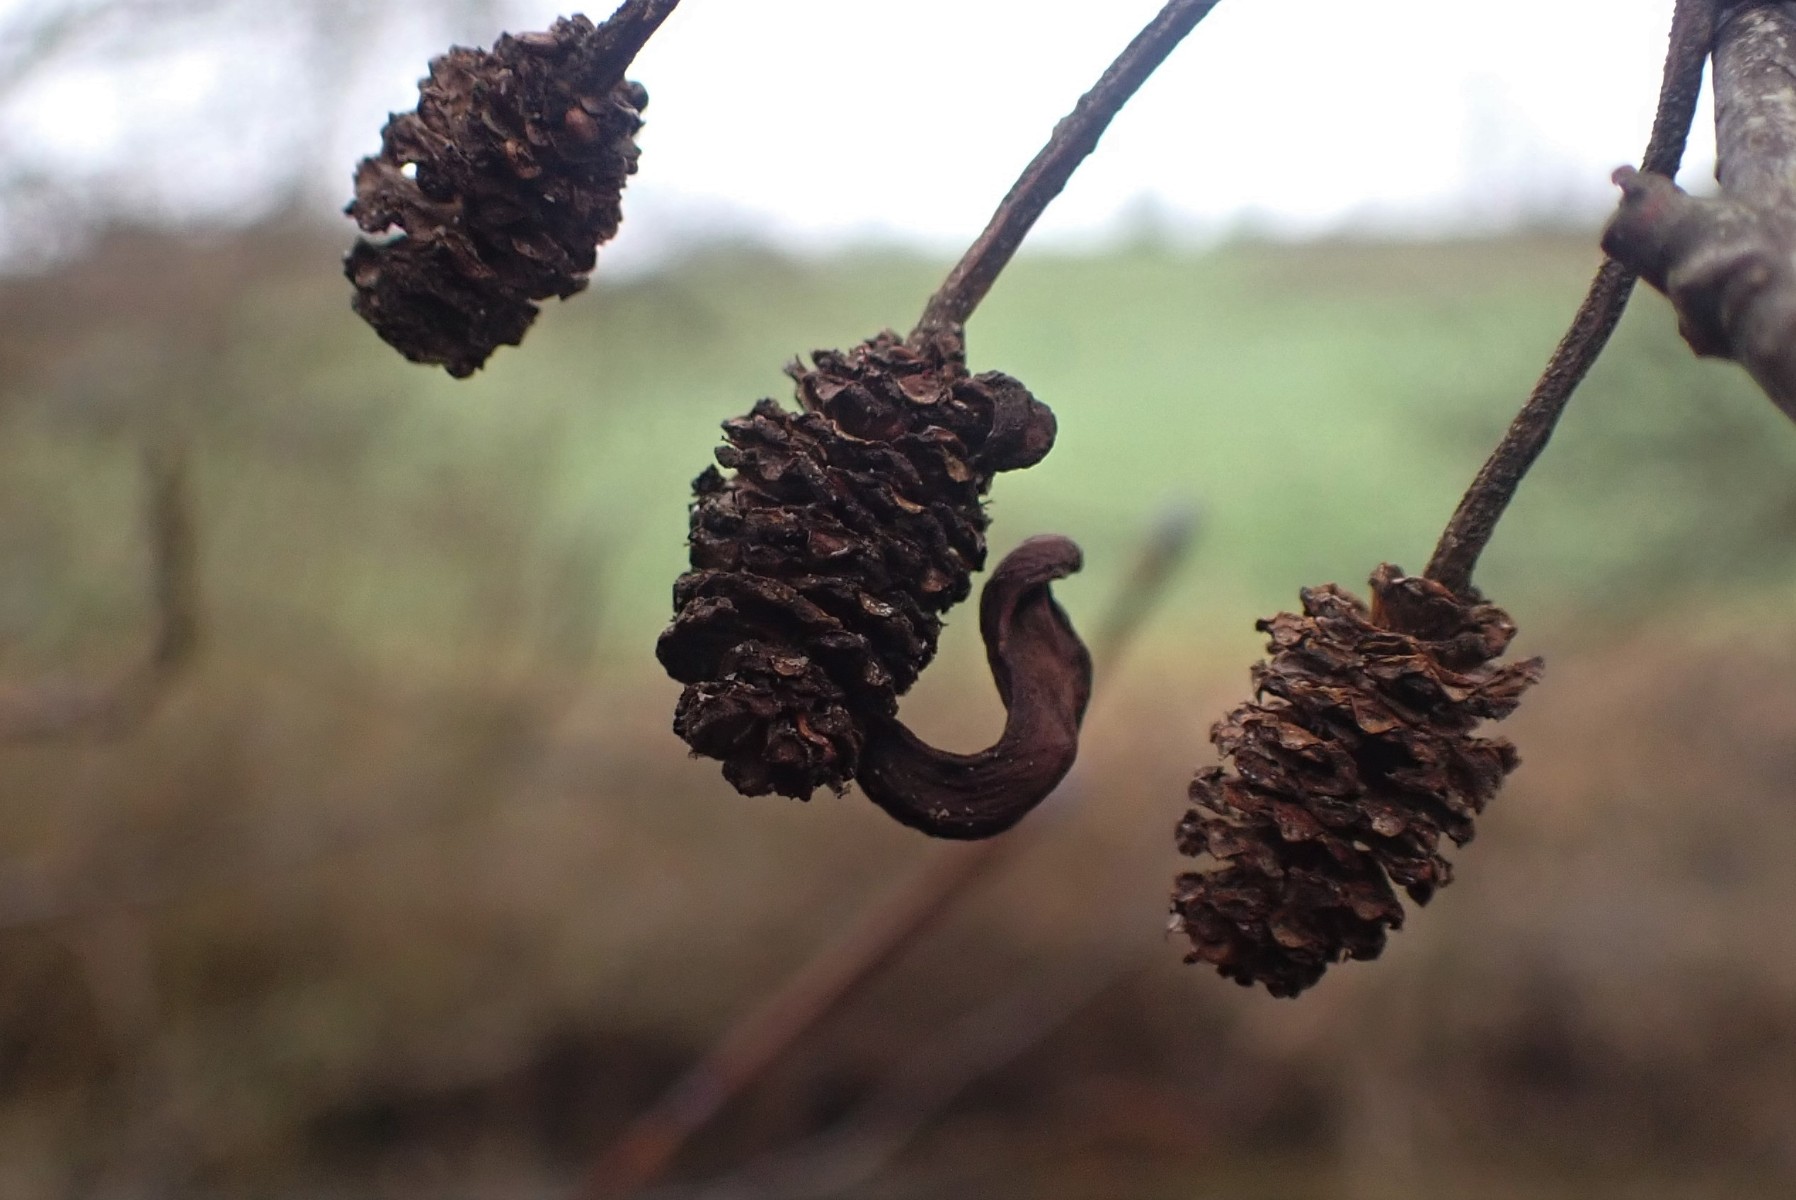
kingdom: Fungi
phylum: Ascomycota
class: Taphrinomycetes
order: Taphrinales
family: Taphrinaceae
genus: Taphrina
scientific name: Taphrina alni
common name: Alder tongue
